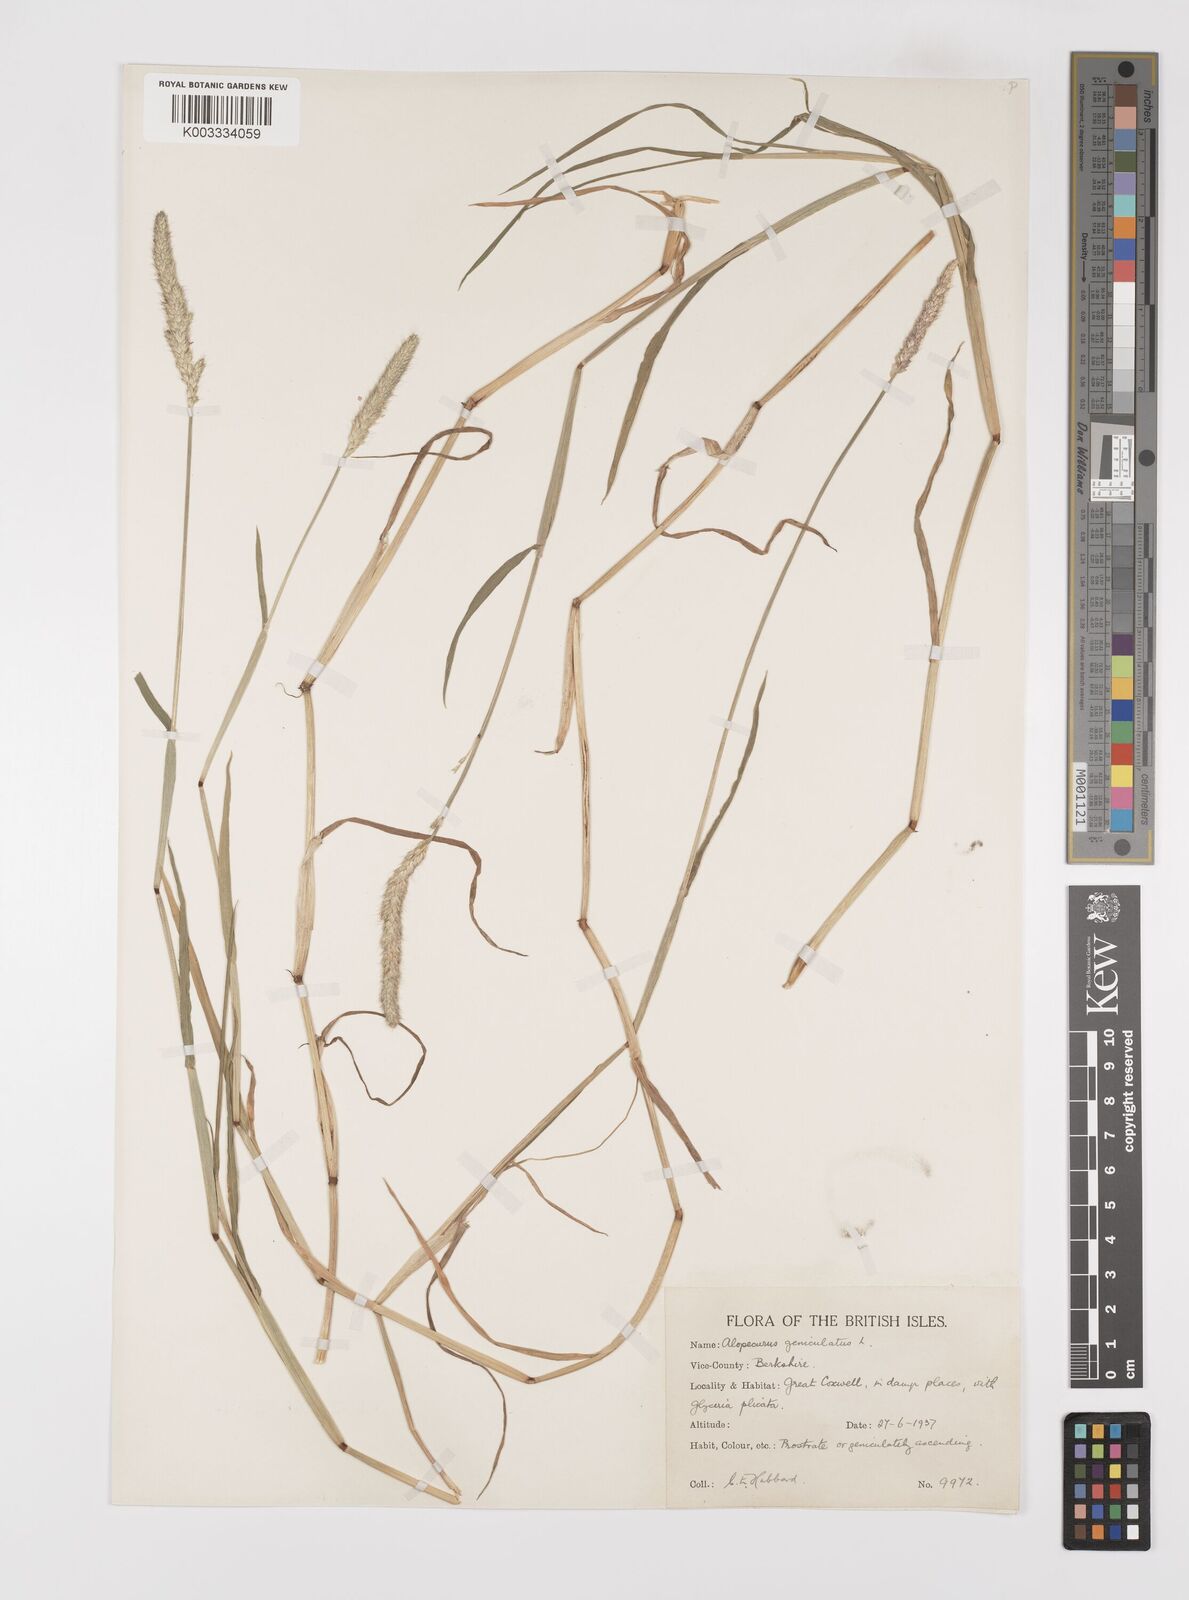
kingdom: Plantae
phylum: Tracheophyta
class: Liliopsida
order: Poales
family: Poaceae
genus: Alopecurus
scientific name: Alopecurus geniculatus
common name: Water foxtail
